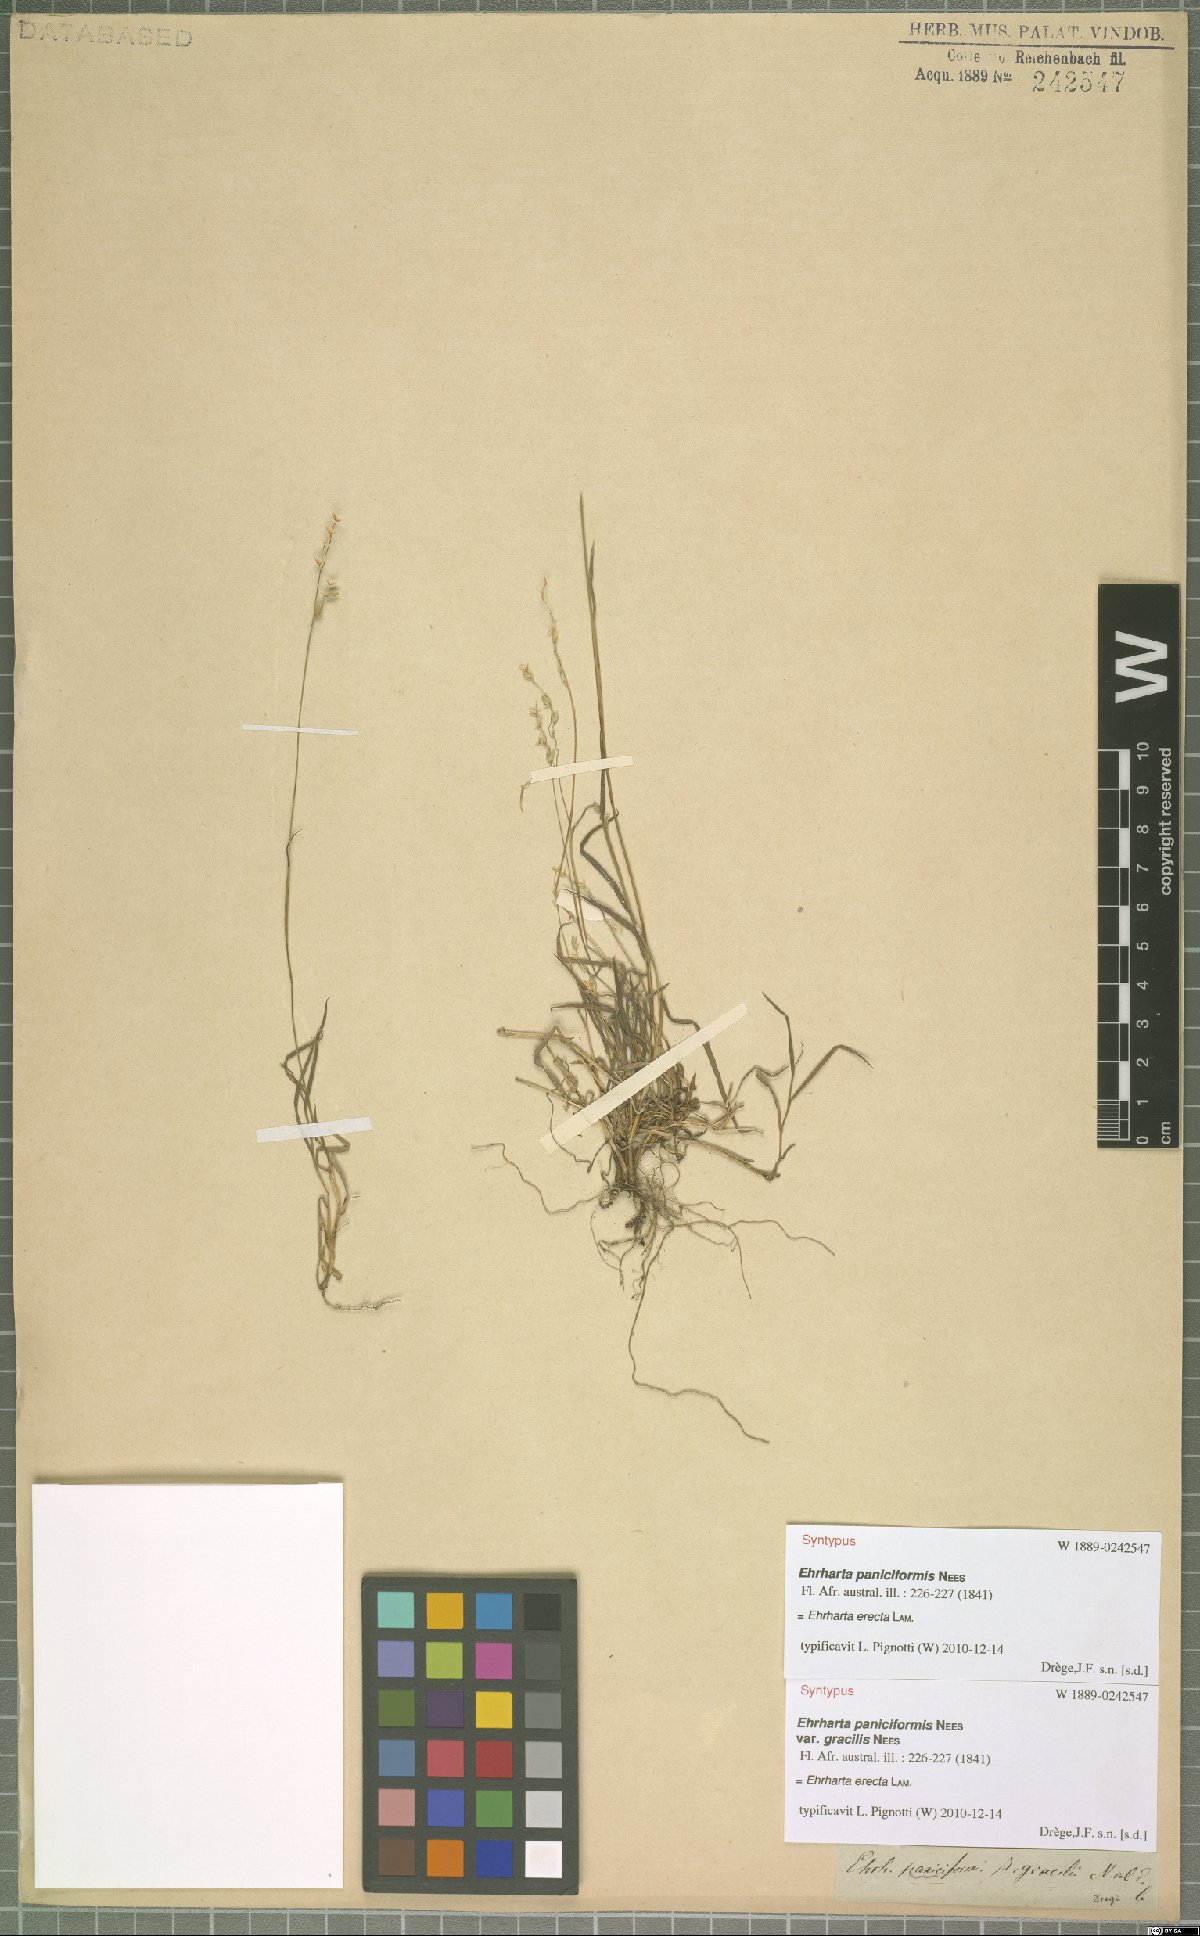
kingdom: Plantae
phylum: Tracheophyta
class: Liliopsida
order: Poales
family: Poaceae
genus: Ehrharta
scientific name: Ehrharta erecta
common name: Panic veldtgrass
